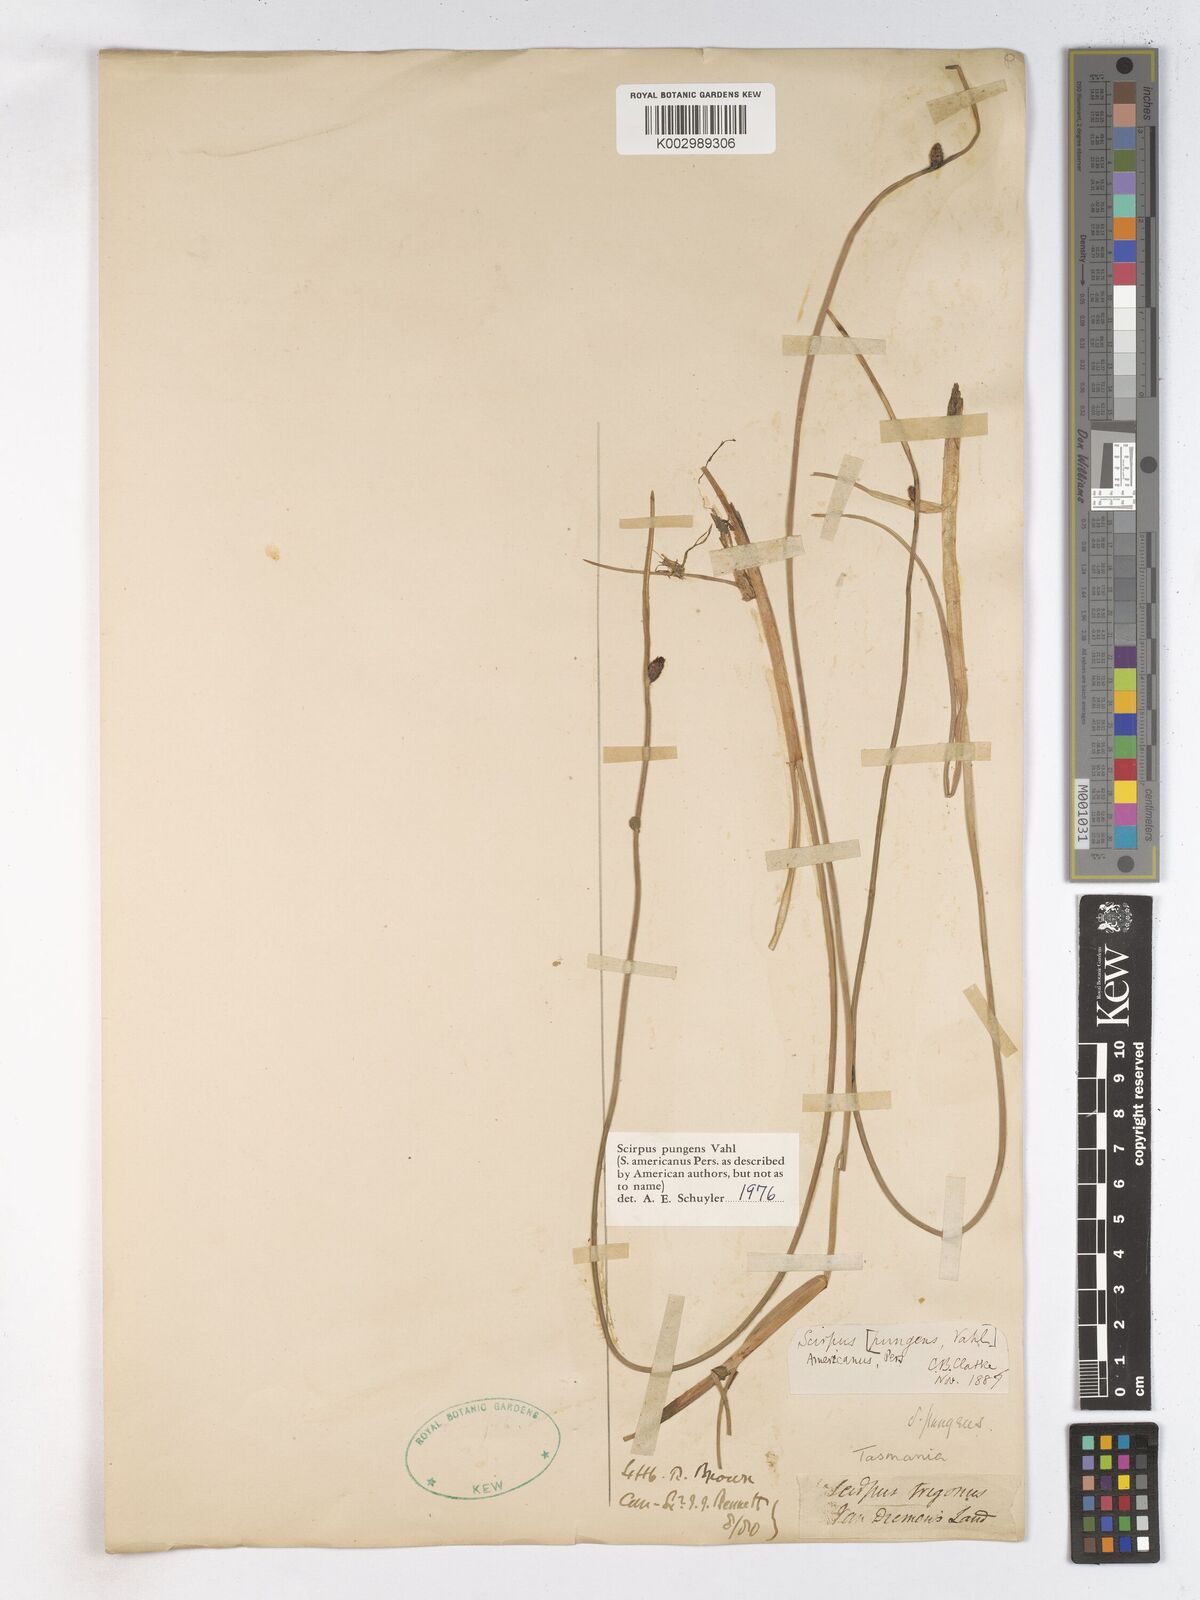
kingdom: Plantae
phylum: Tracheophyta
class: Liliopsida
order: Poales
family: Cyperaceae
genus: Schoenoplectus
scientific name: Schoenoplectus pungens
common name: Sharp club-rush
